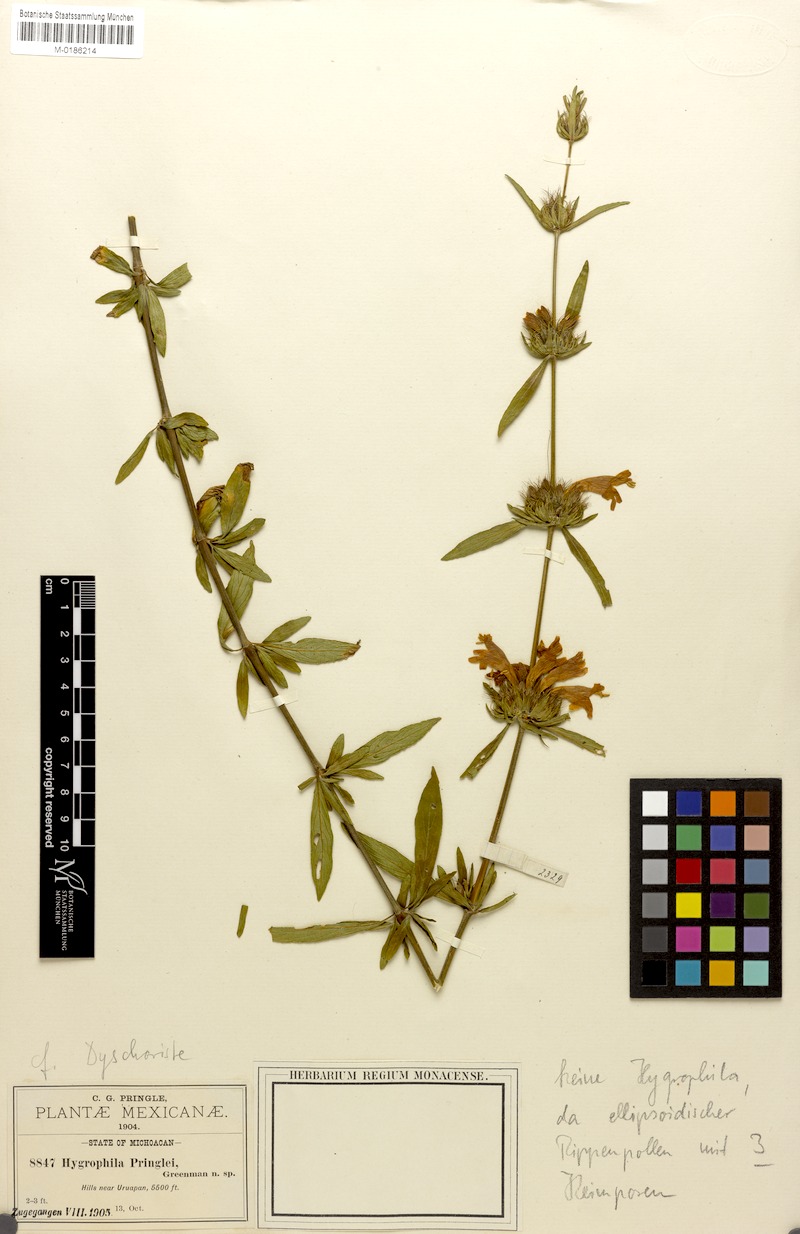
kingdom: Plantae
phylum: Tracheophyta
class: Magnoliopsida
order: Lamiales
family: Acanthaceae
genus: Dyschoriste
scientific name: Dyschoriste angustifolia
